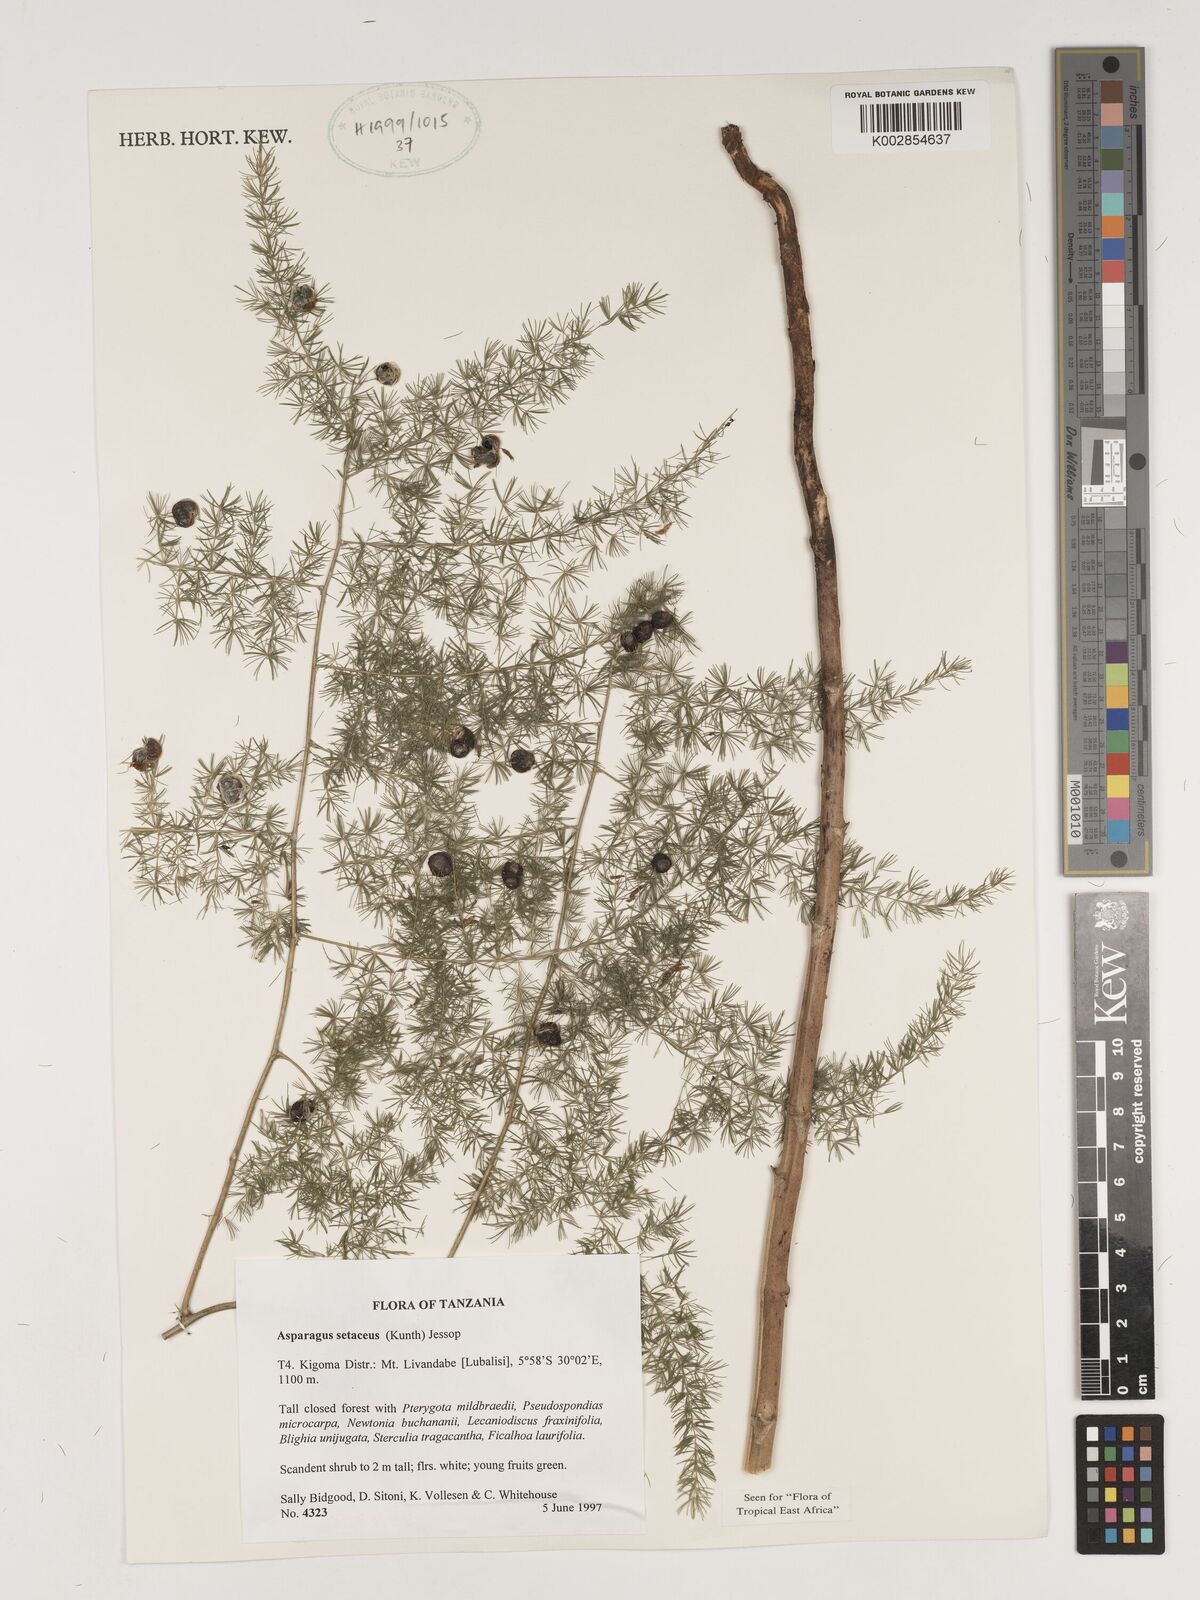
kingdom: Plantae
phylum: Tracheophyta
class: Liliopsida
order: Asparagales
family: Asparagaceae
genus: Asparagus
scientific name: Asparagus setaceus
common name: Common asparagus fern
